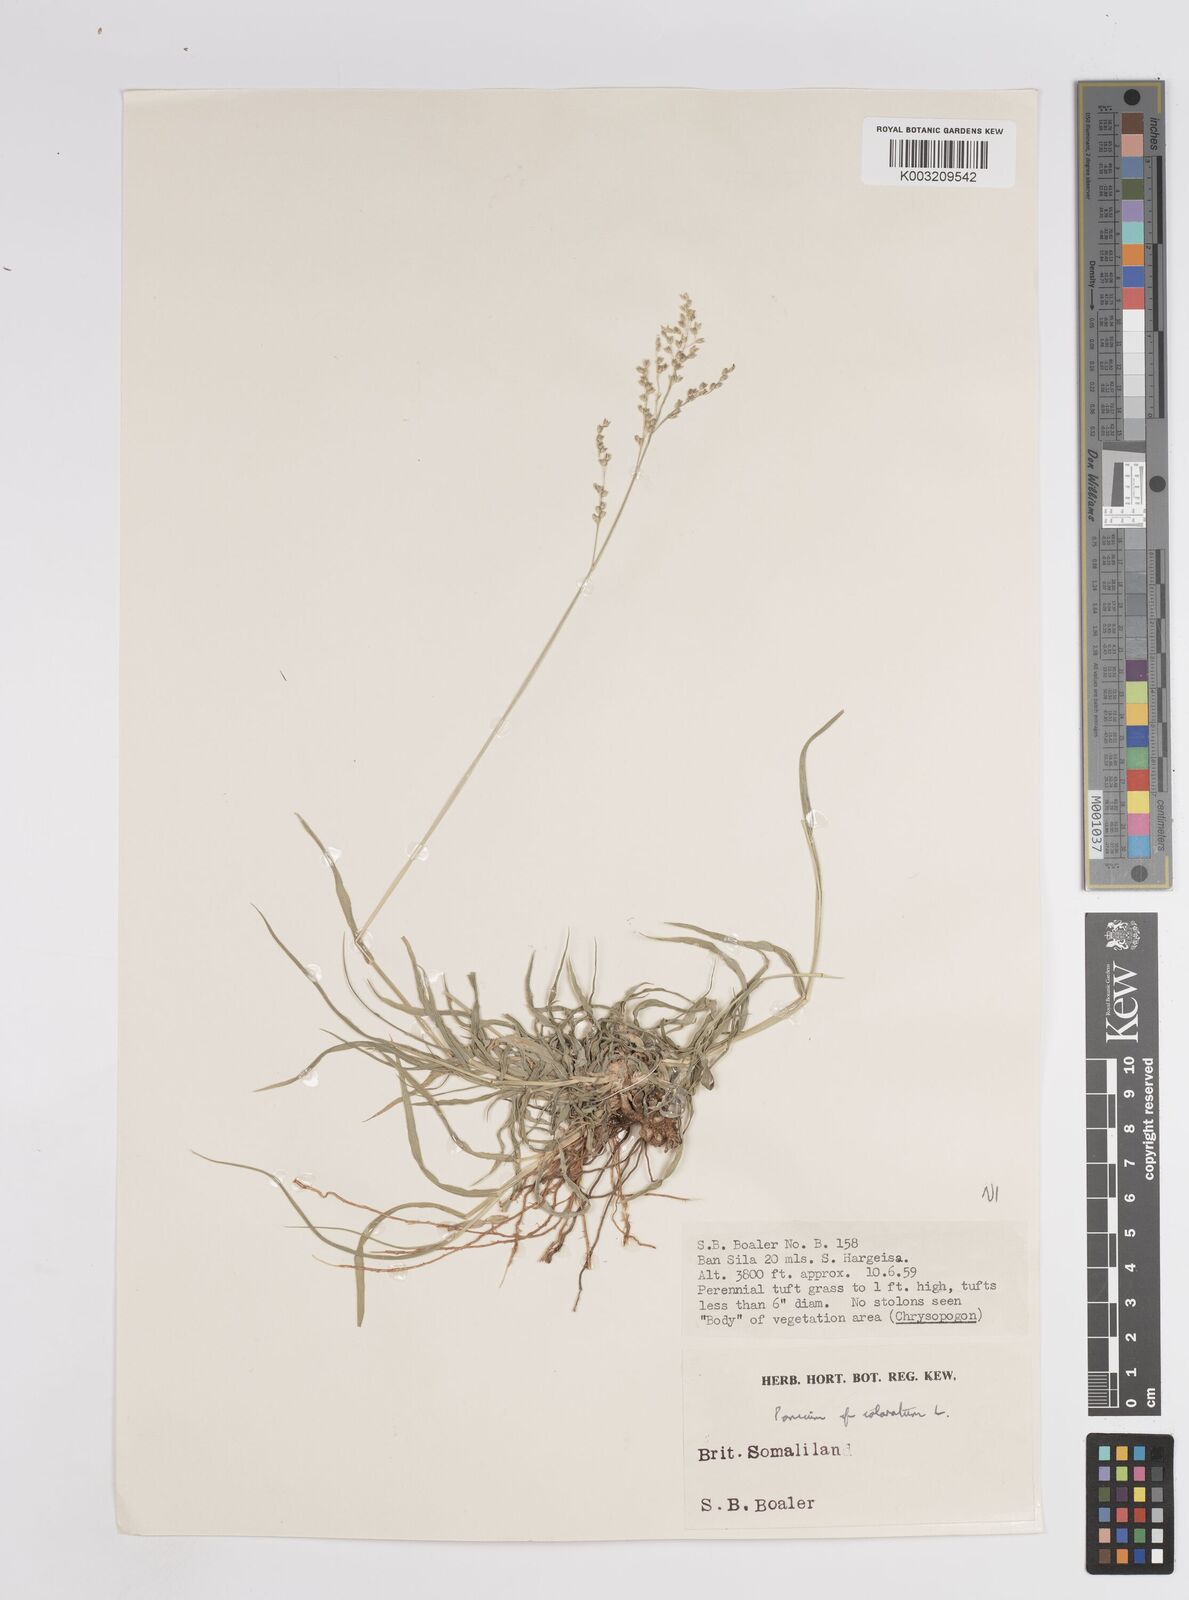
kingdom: Plantae
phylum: Tracheophyta
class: Liliopsida
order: Poales
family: Poaceae
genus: Panicum
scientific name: Panicum coloratum
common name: Kleingrass
